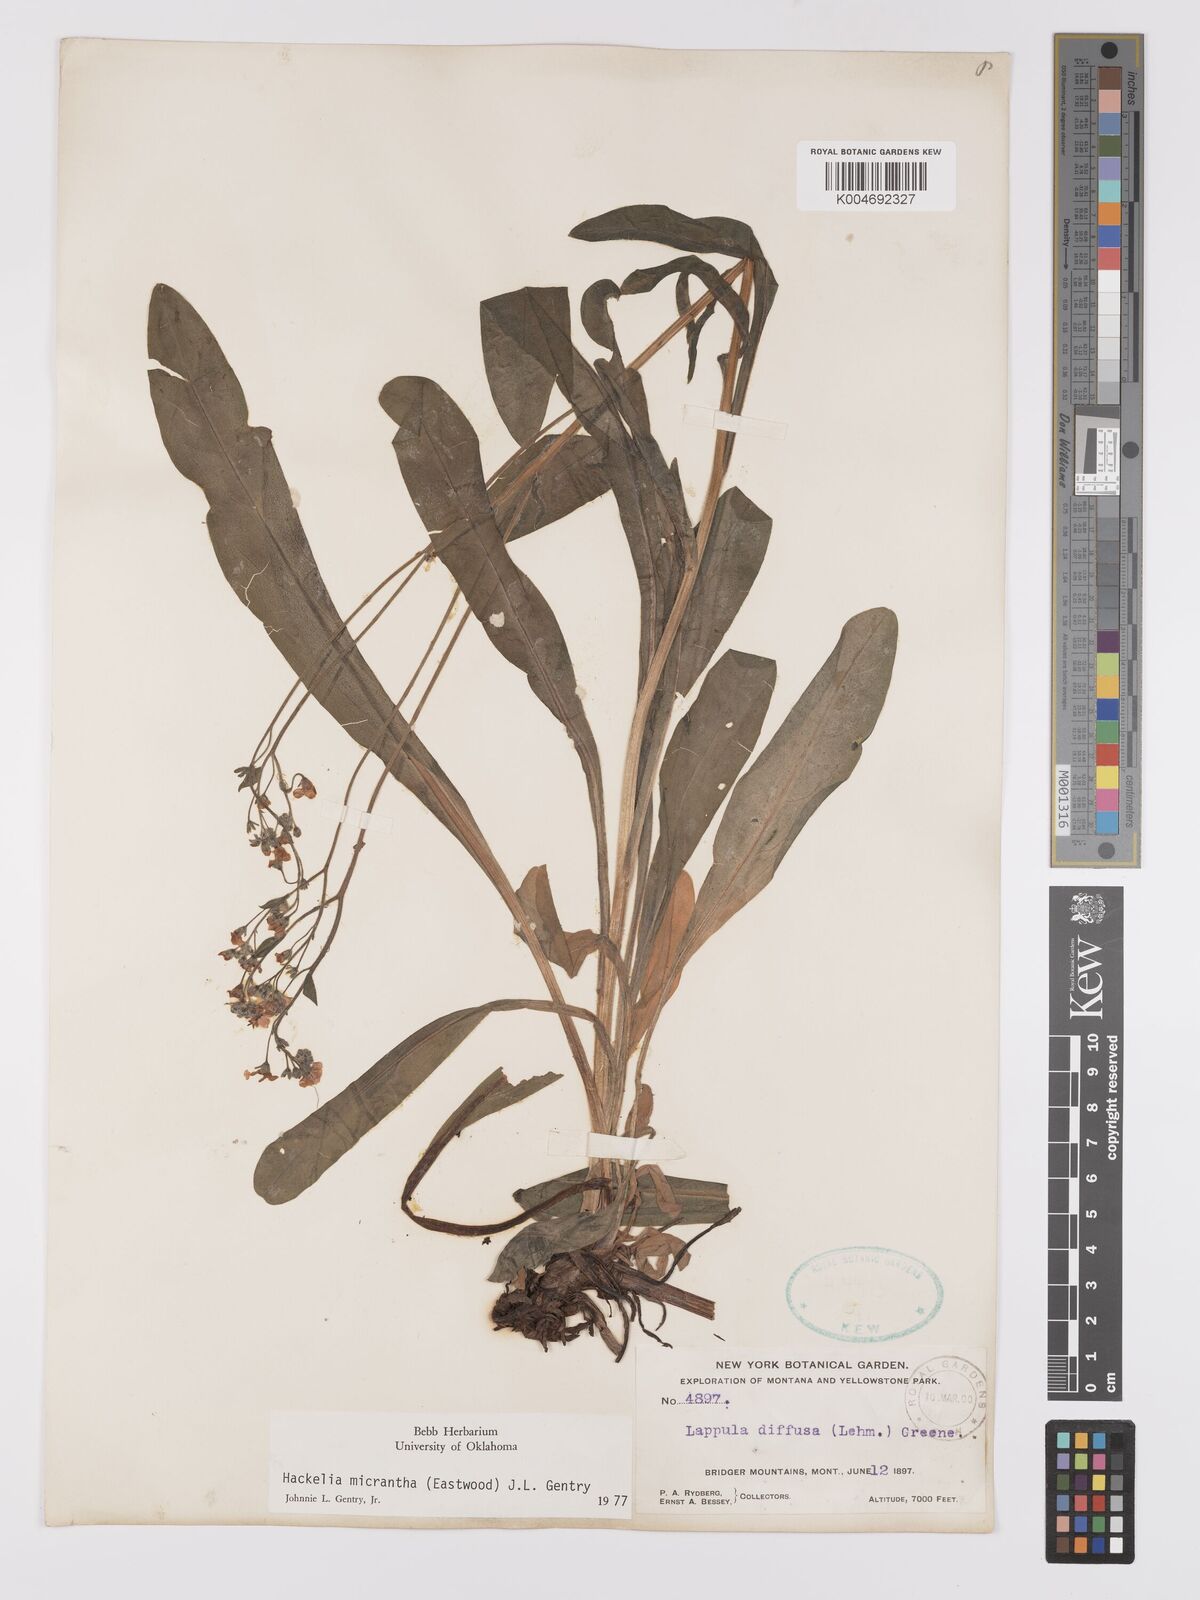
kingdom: Plantae
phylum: Tracheophyta
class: Magnoliopsida
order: Boraginales
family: Boraginaceae
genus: Hackelia
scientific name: Hackelia micrantha
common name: Meadow stickseed
